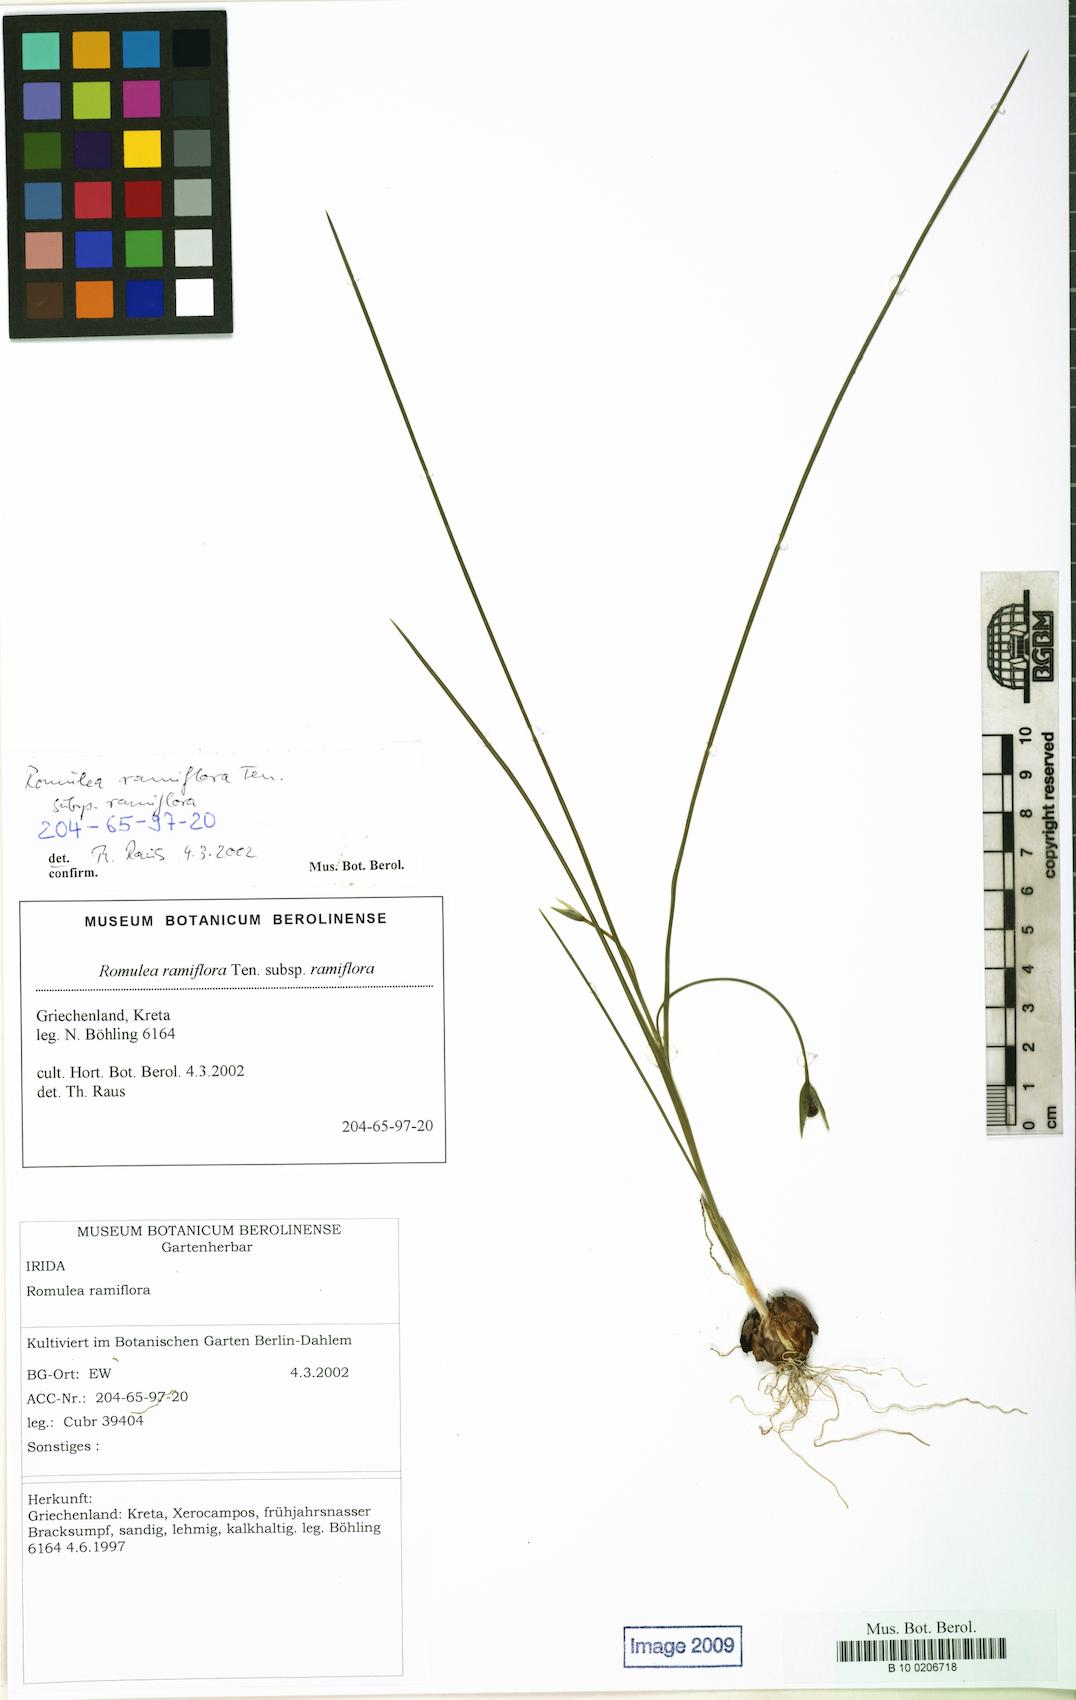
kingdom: Plantae
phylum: Tracheophyta
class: Liliopsida
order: Asparagales
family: Iridaceae
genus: Romulea
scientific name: Romulea ramiflora
